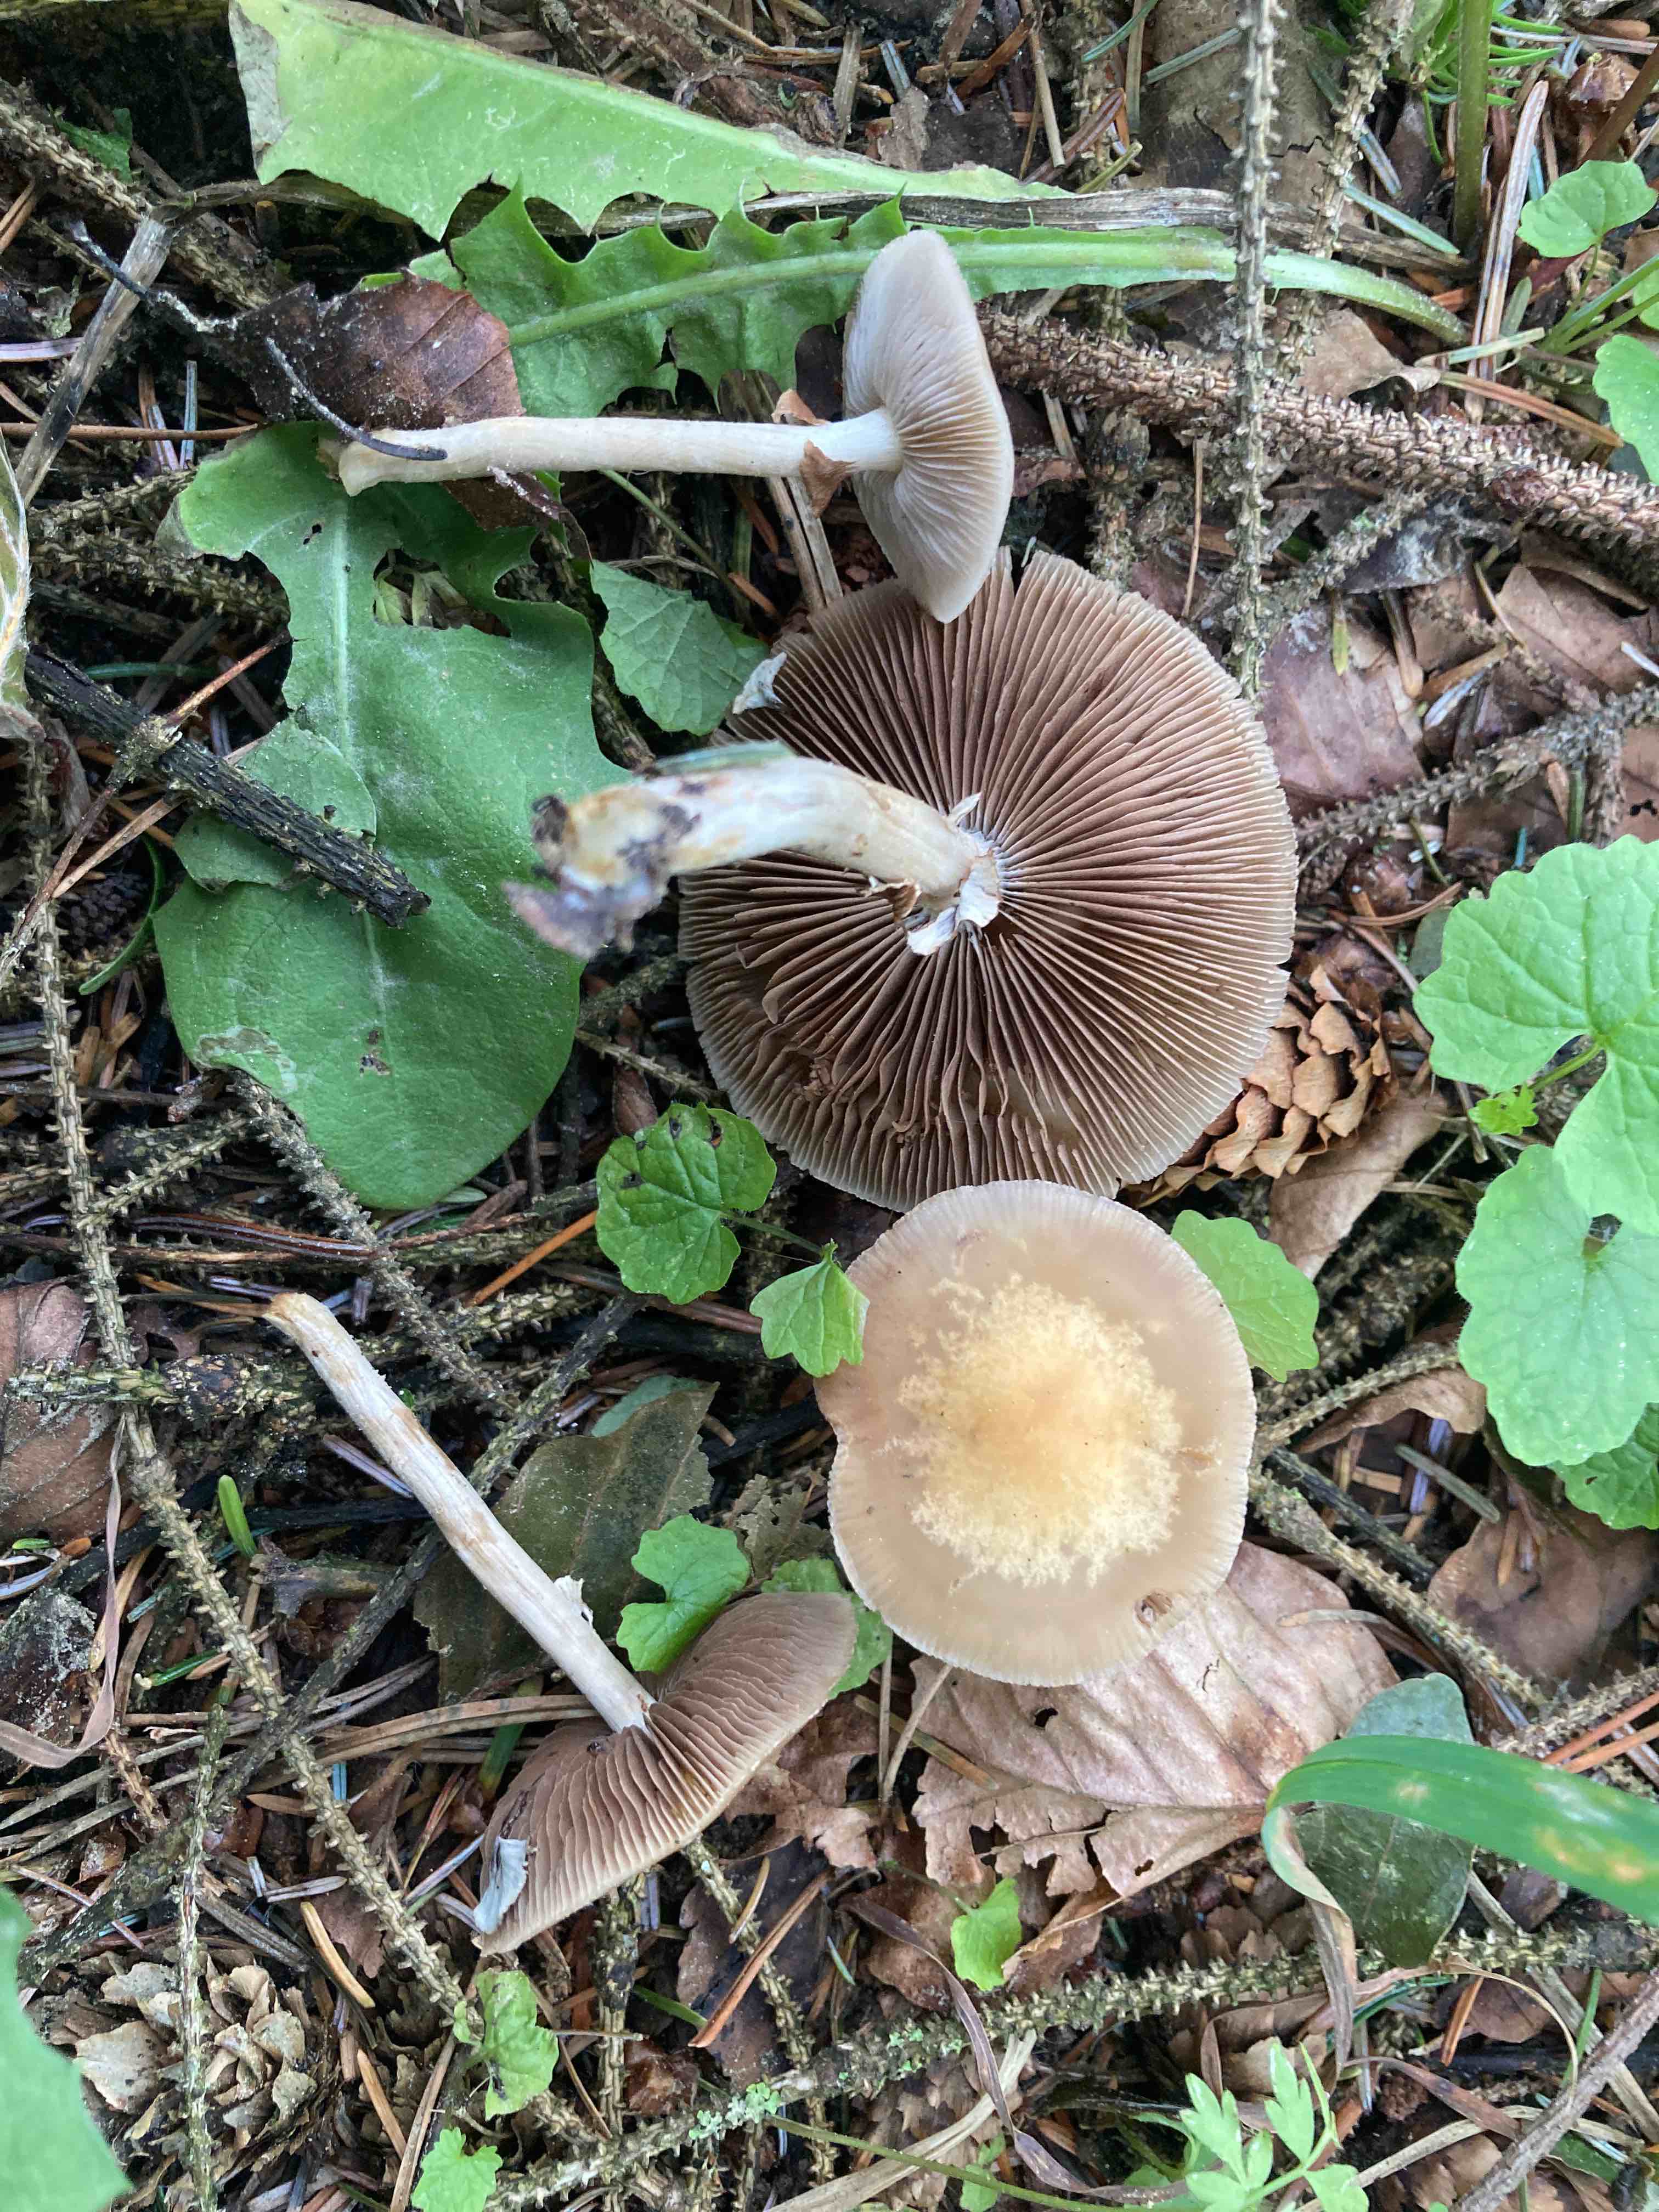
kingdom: Fungi
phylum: Basidiomycota
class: Agaricomycetes
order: Agaricales
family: Strophariaceae
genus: Agrocybe
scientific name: Agrocybe praecox
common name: tidlig agerhat
